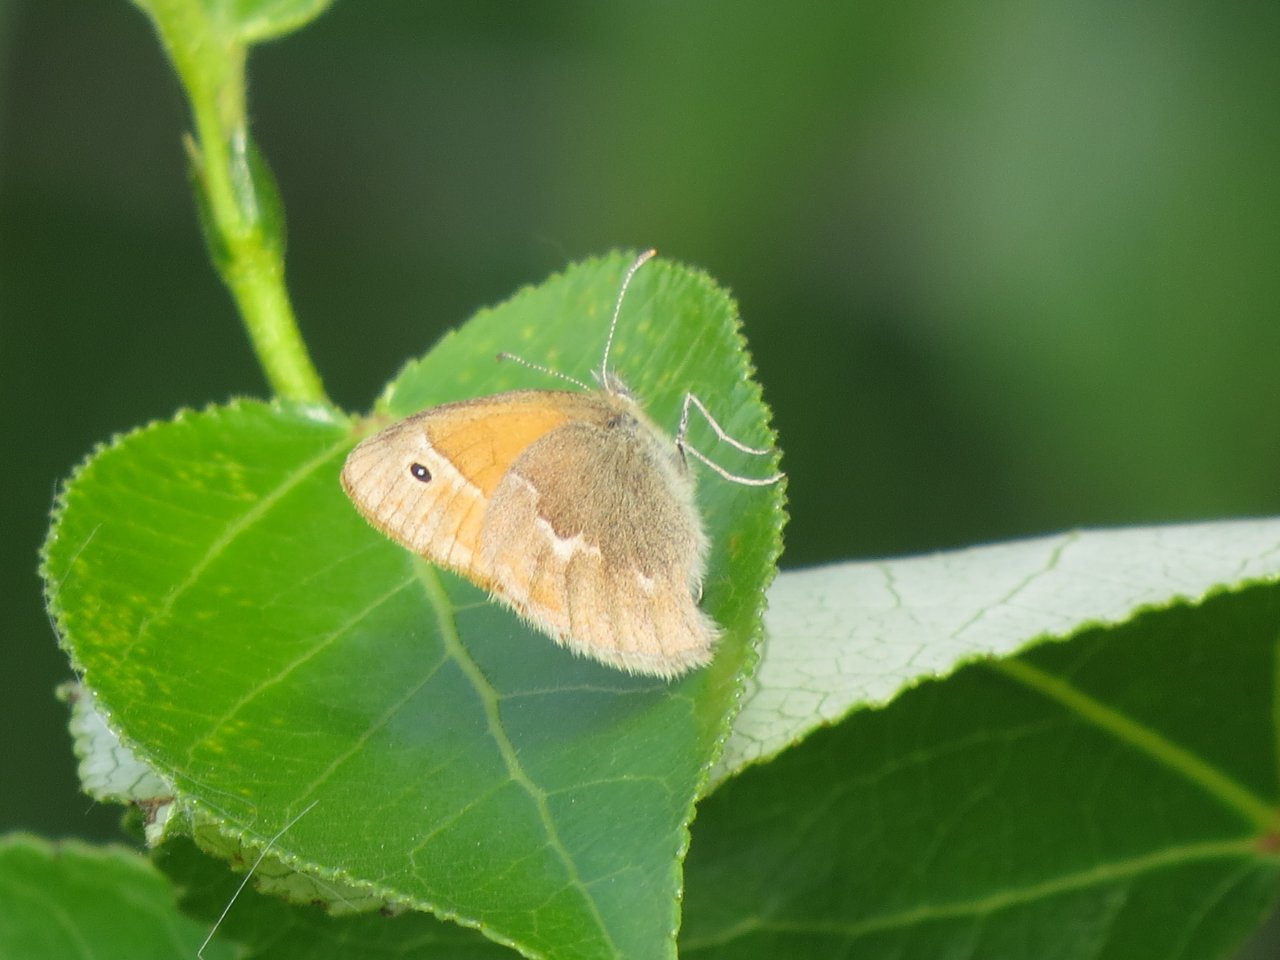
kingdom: Animalia
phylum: Arthropoda
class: Insecta
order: Lepidoptera
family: Nymphalidae
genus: Coenonympha
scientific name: Coenonympha tullia
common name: Large Heath
